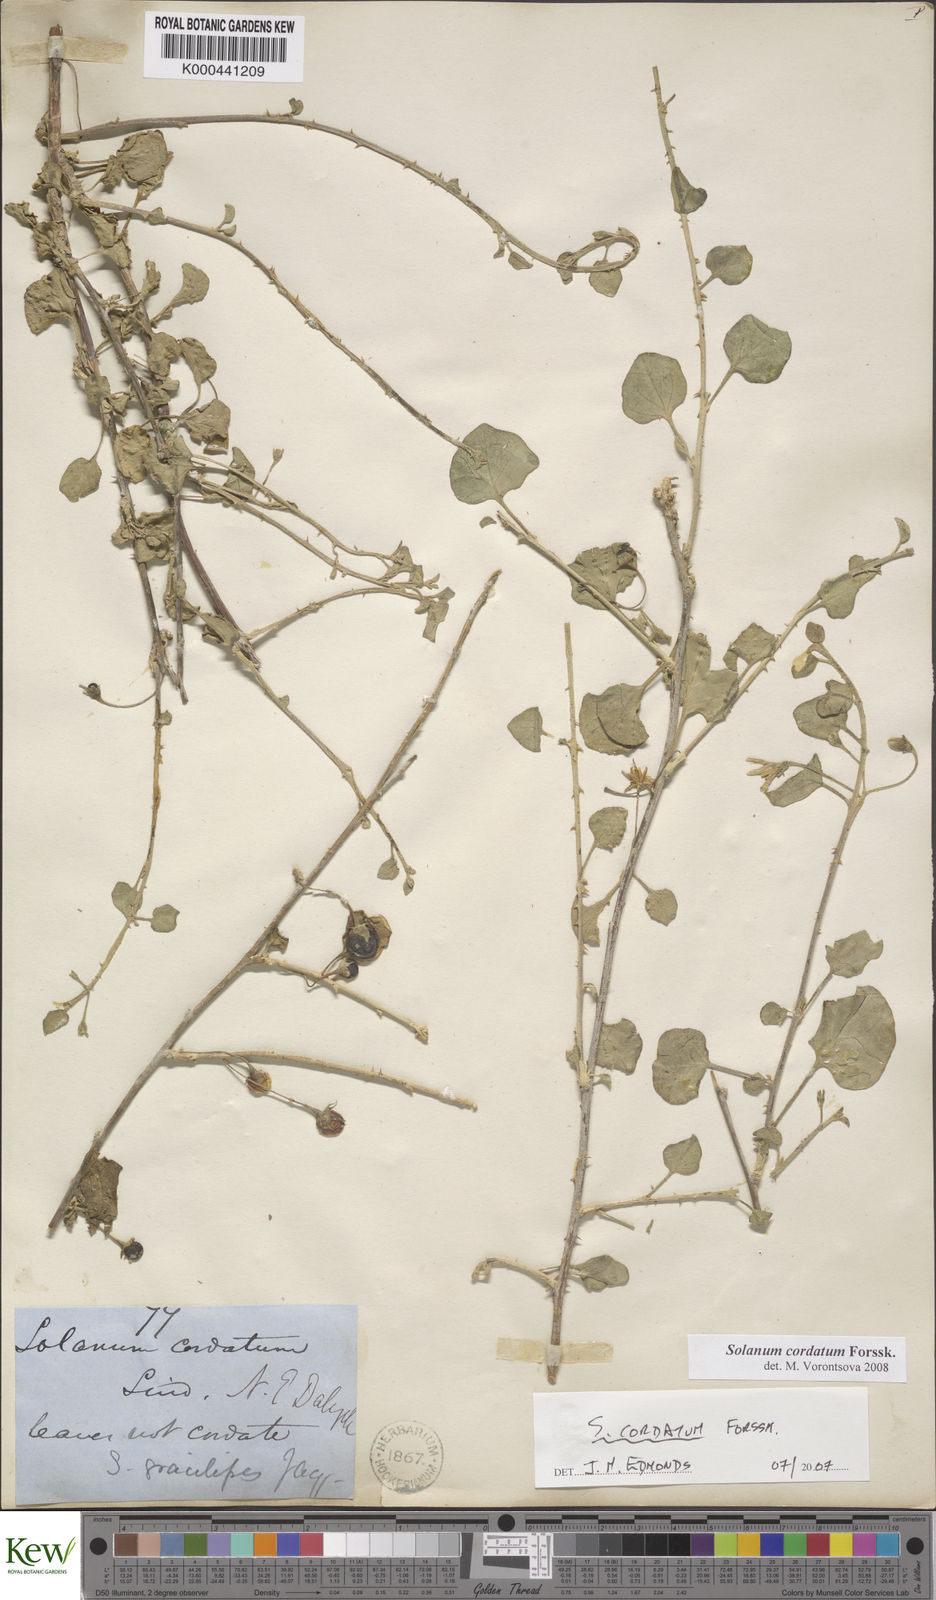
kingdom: Plantae
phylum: Tracheophyta
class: Magnoliopsida
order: Solanales
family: Solanaceae
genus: Solanum
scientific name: Solanum cordatum
